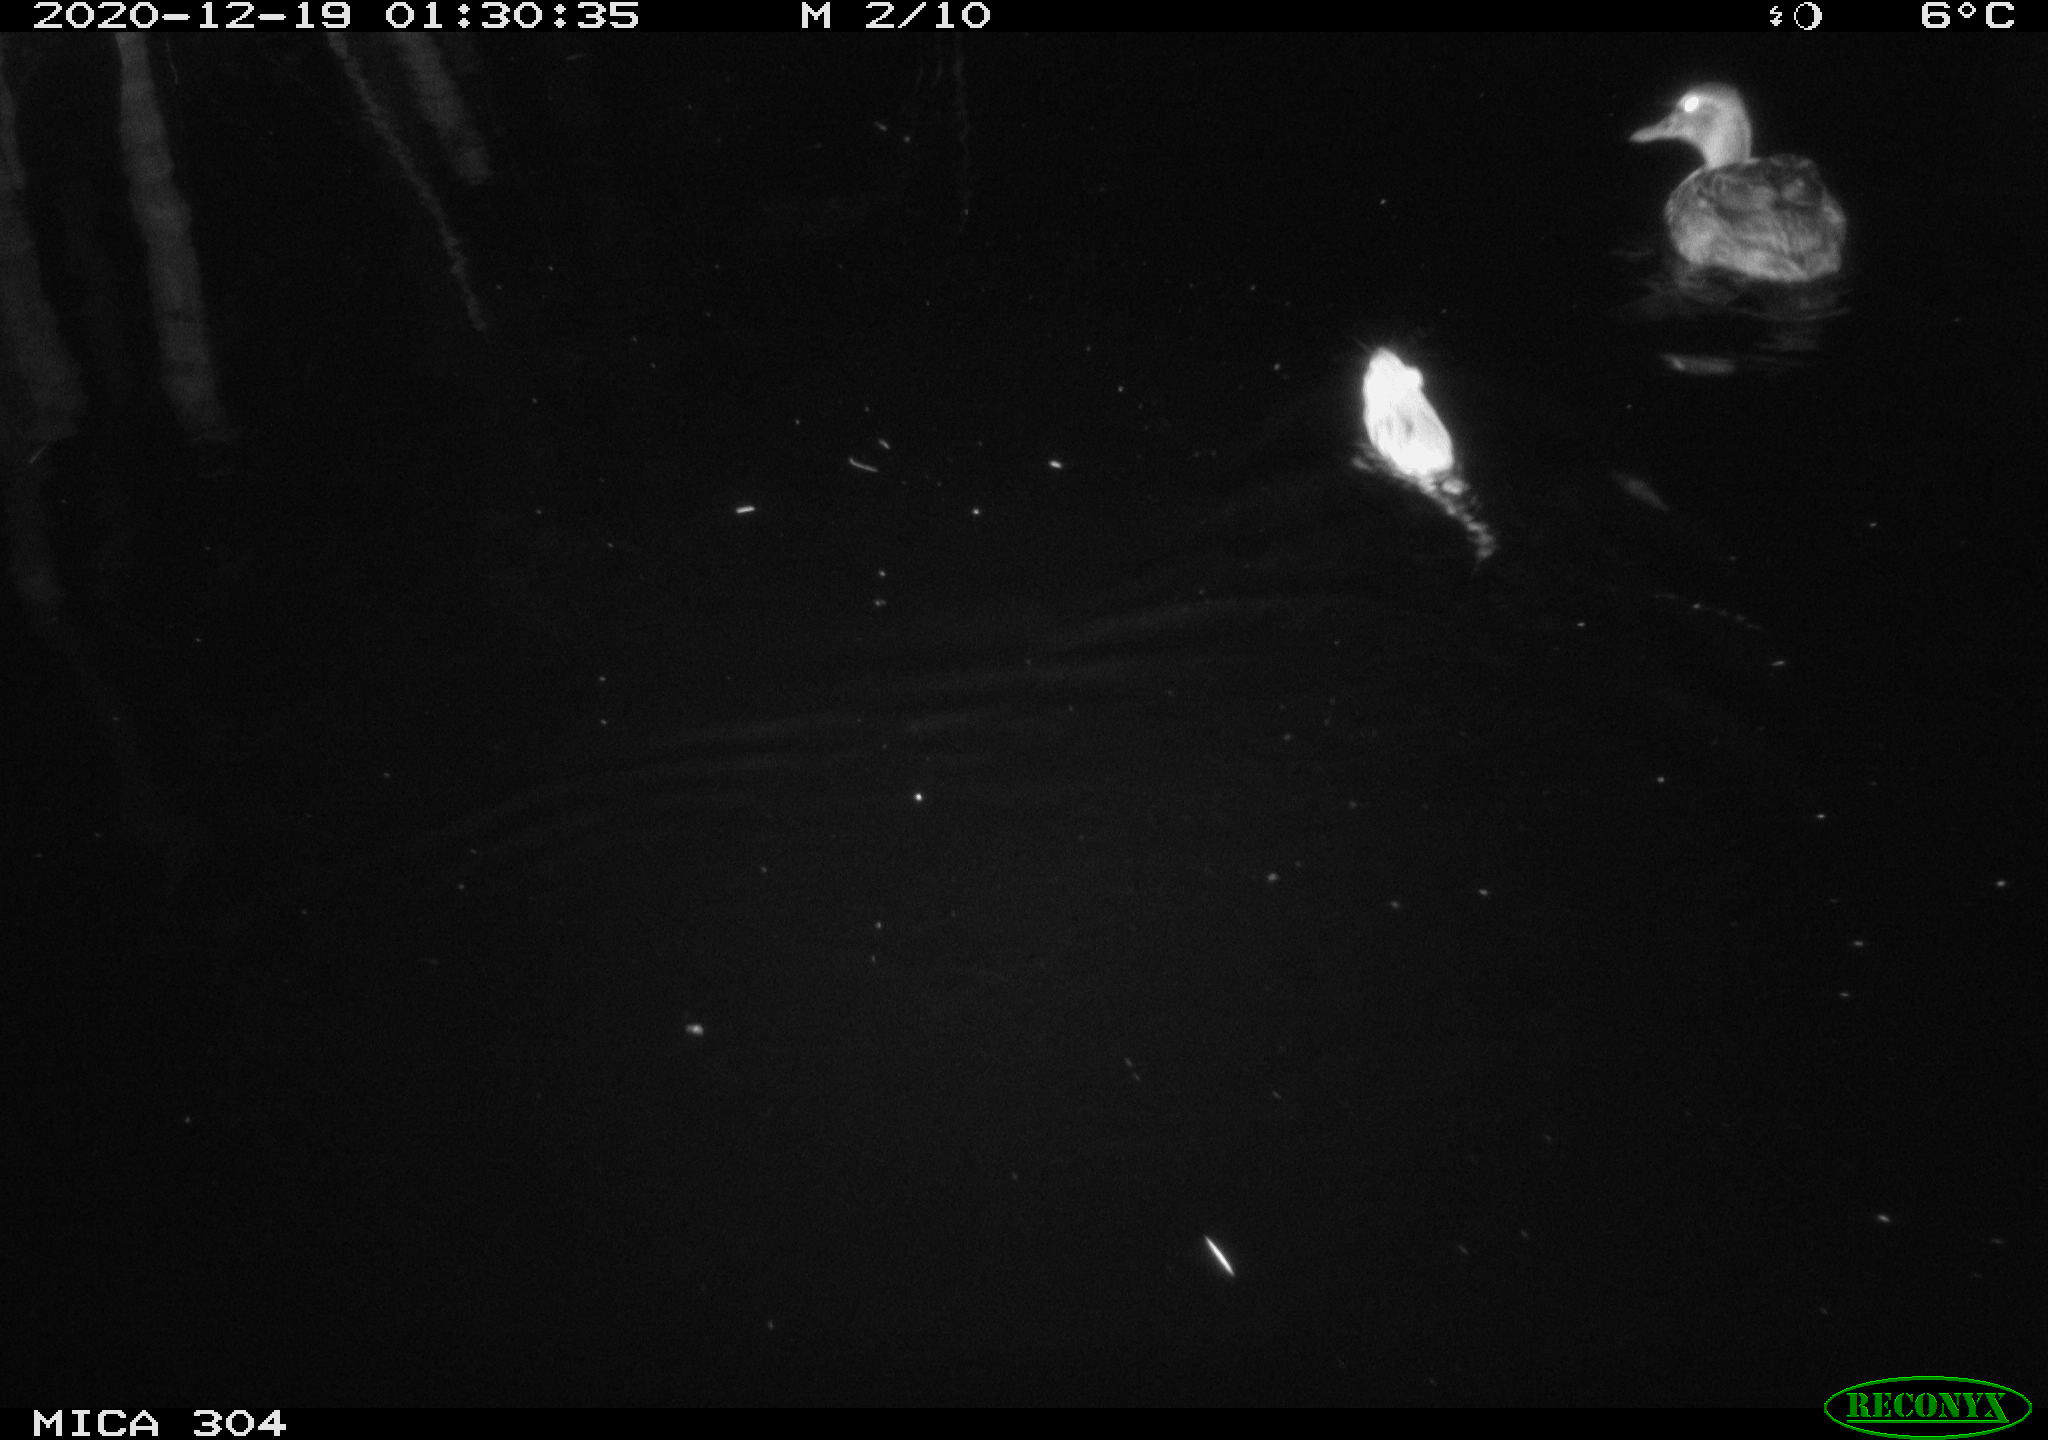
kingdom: Animalia
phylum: Chordata
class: Mammalia
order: Rodentia
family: Muridae
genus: Rattus
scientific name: Rattus norvegicus
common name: Brown rat
